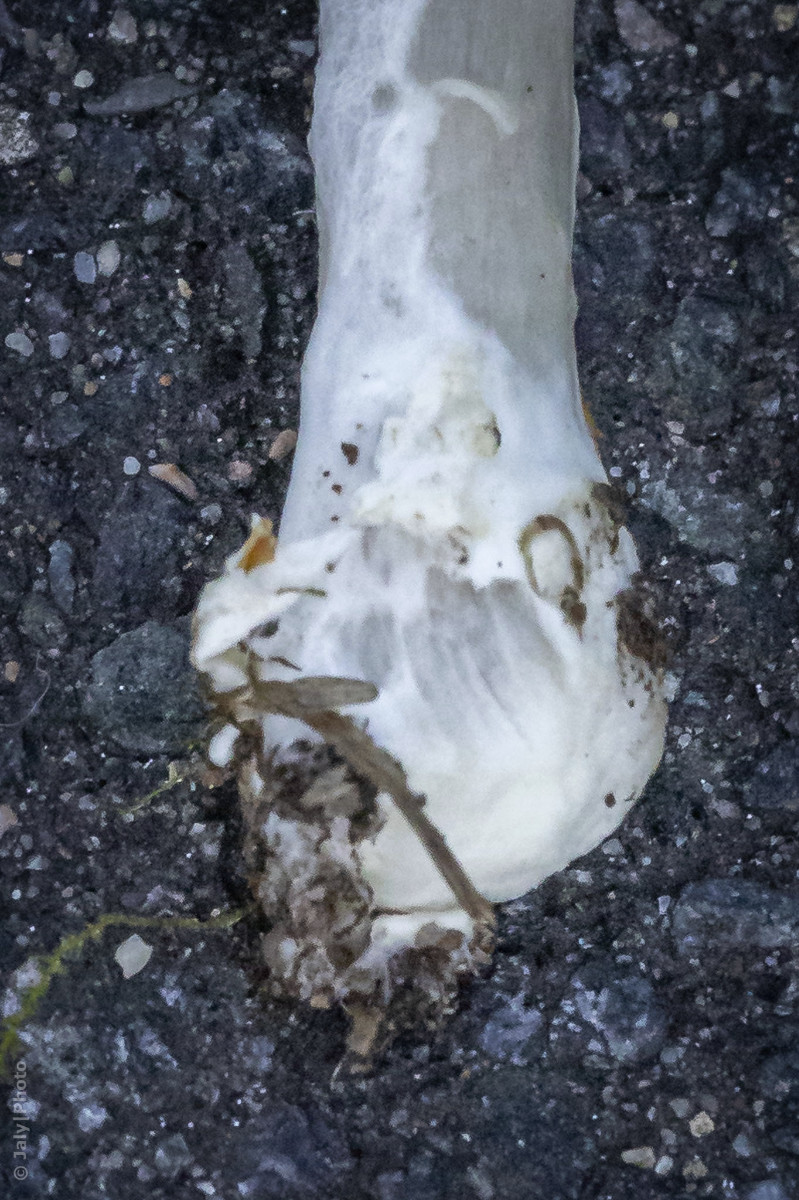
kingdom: Fungi
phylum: Basidiomycota
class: Agaricomycetes
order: Agaricales
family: Pluteaceae
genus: Volvopluteus
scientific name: Volvopluteus gloiocephalus
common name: høj posesvamp
